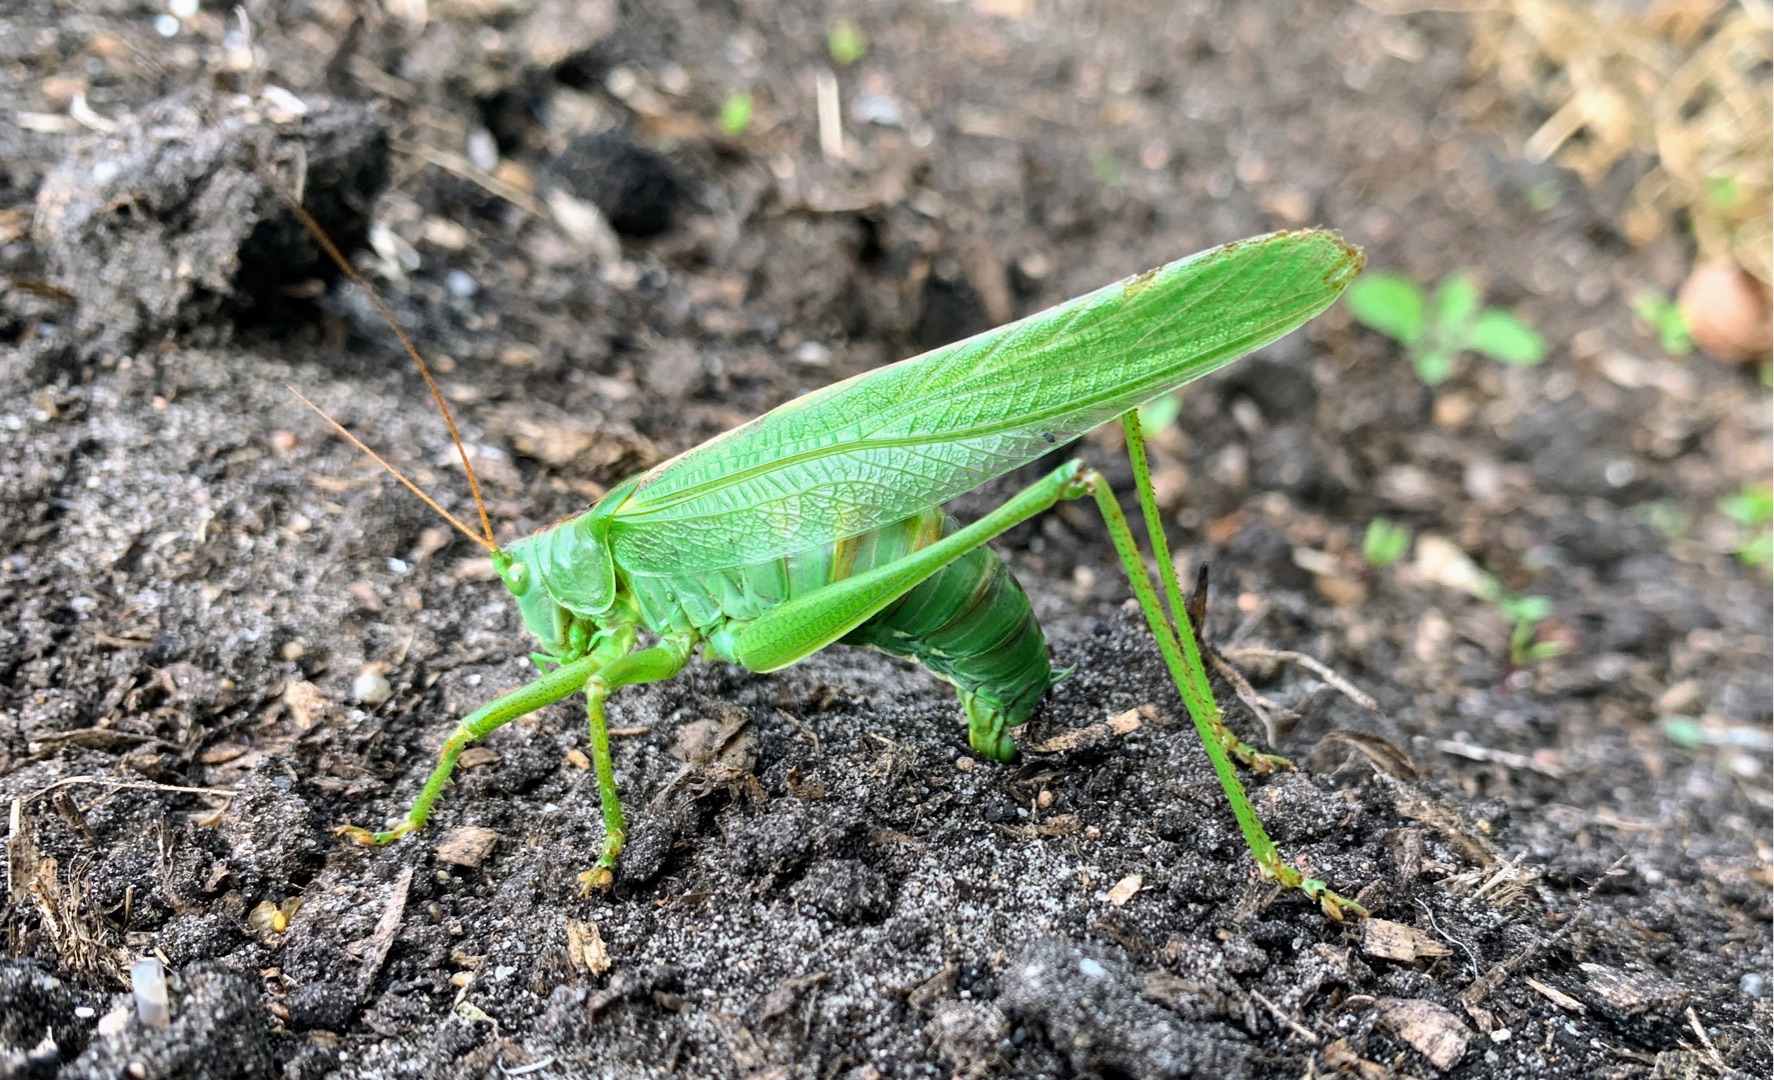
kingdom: Animalia
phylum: Arthropoda
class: Insecta
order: Orthoptera
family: Tettigoniidae
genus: Tettigonia
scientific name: Tettigonia viridissima
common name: Stor grøn løvgræshoppe
